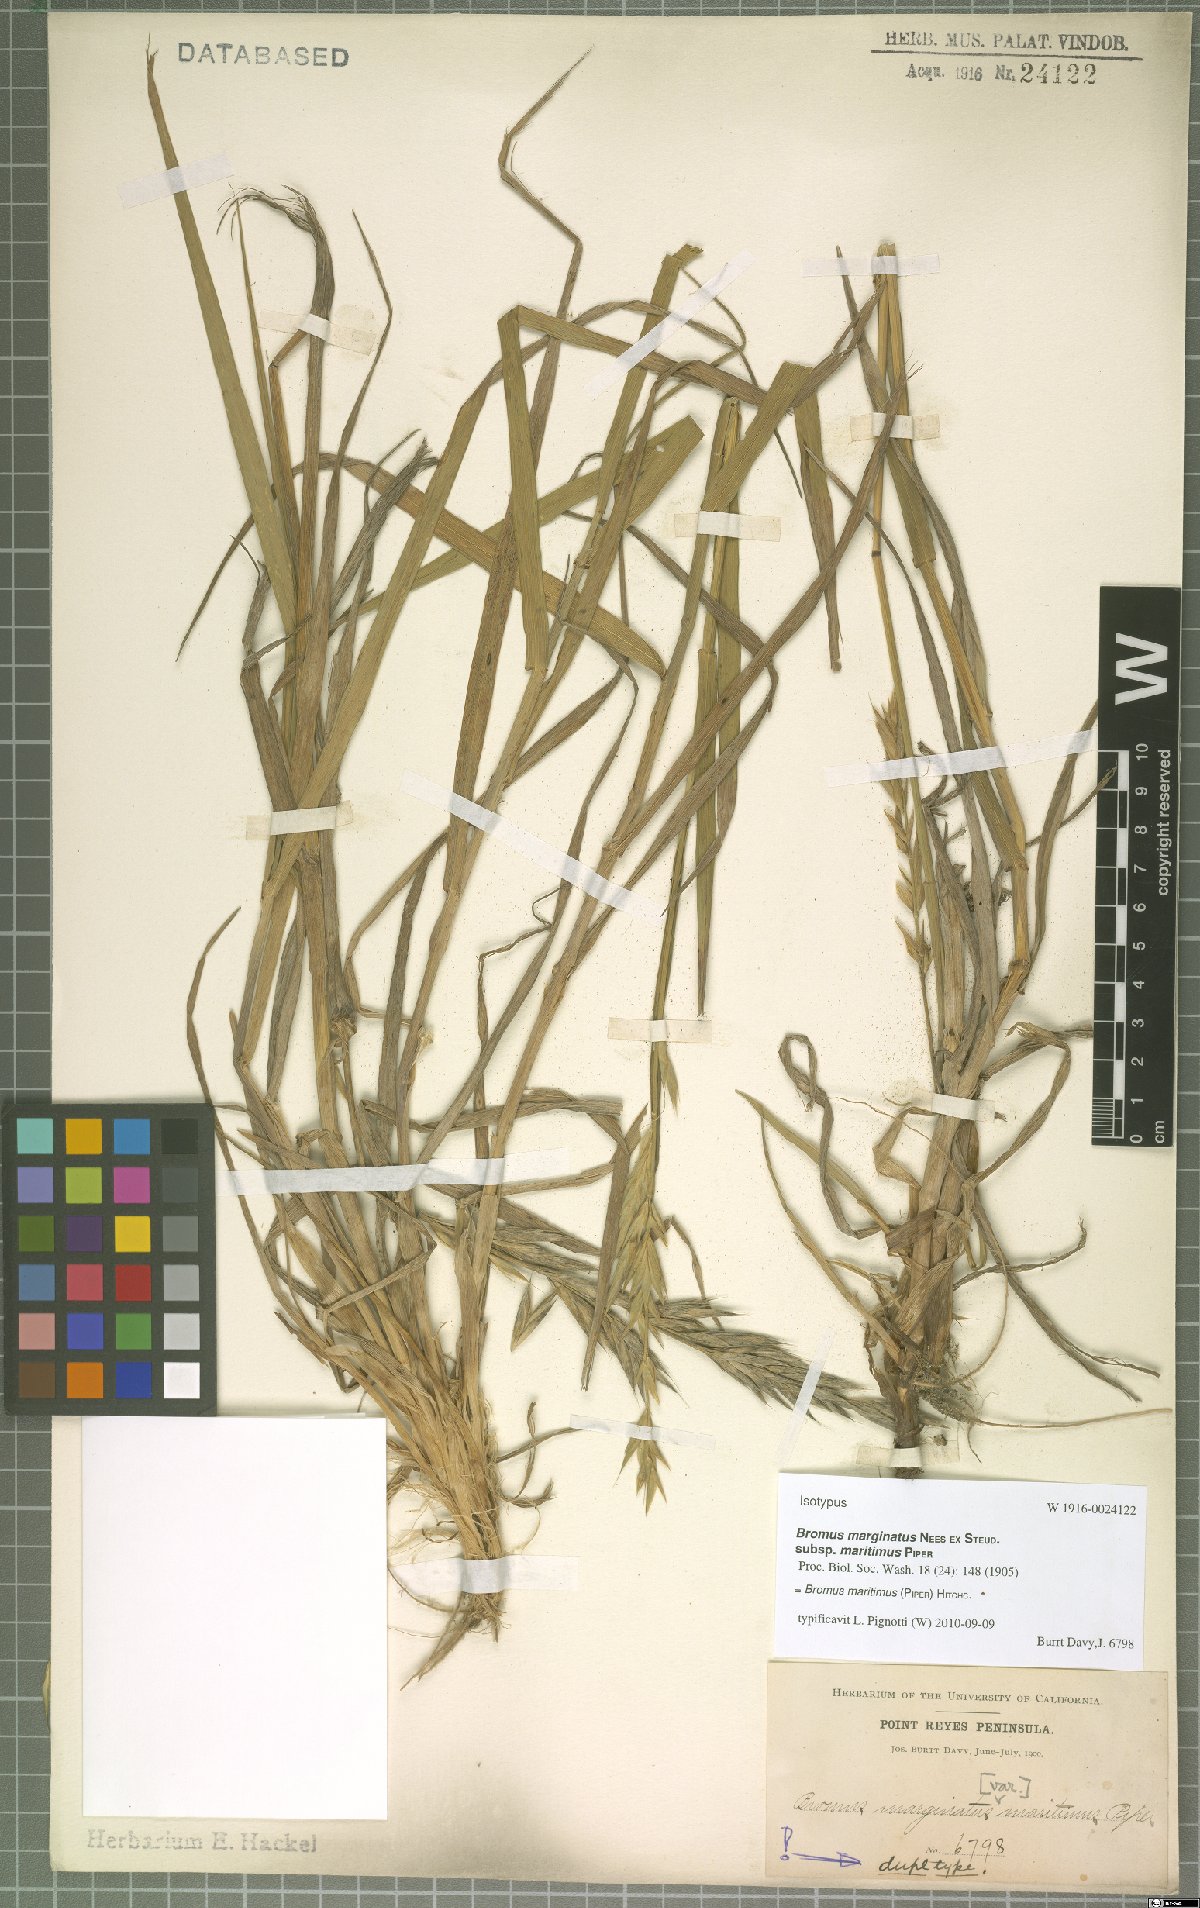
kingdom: Plantae
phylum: Tracheophyta
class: Liliopsida
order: Poales
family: Poaceae
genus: Bromus
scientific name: Bromus maritimus
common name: Maritime brome
